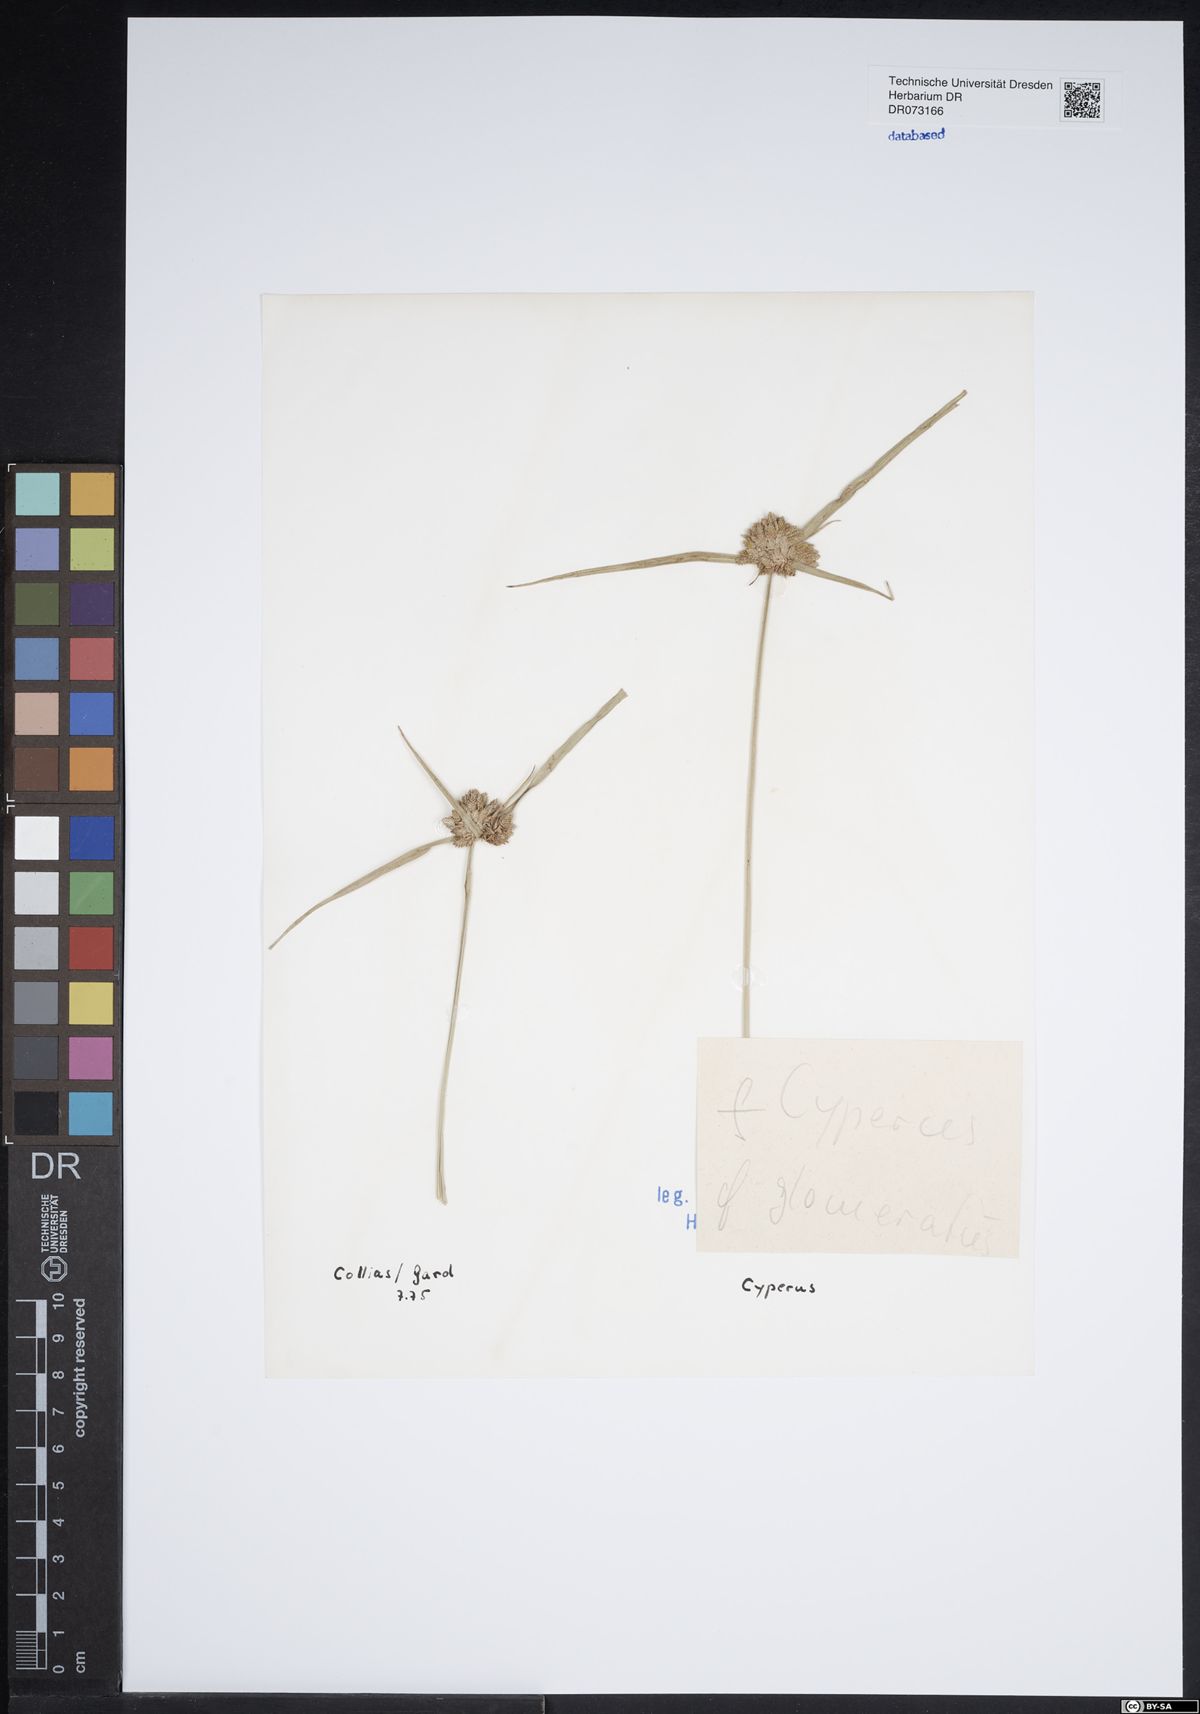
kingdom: Plantae
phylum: Tracheophyta
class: Liliopsida
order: Poales
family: Cyperaceae
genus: Cyperus
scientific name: Cyperus glomeratus
